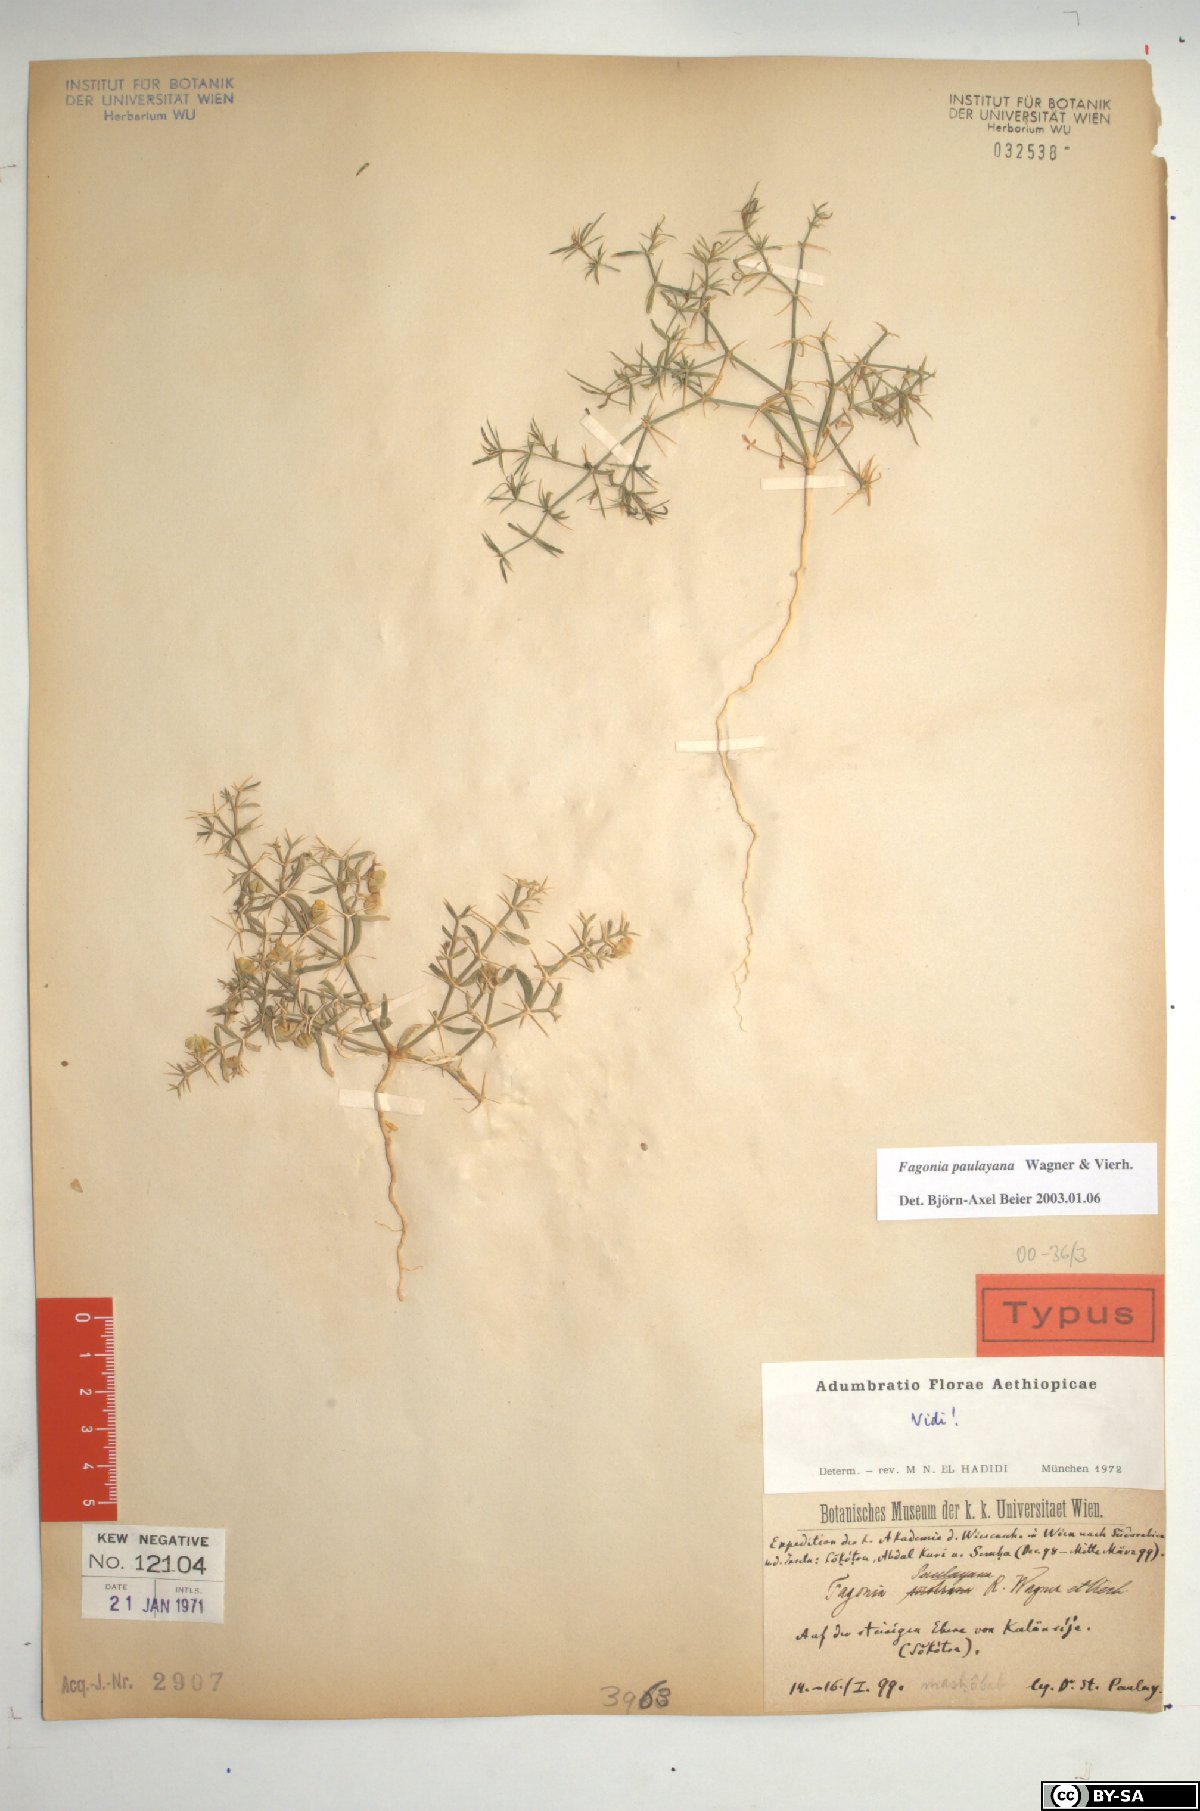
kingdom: Plantae
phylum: Tracheophyta
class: Magnoliopsida
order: Zygophyllales
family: Zygophyllaceae
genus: Fagonia
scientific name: Fagonia paulayana
